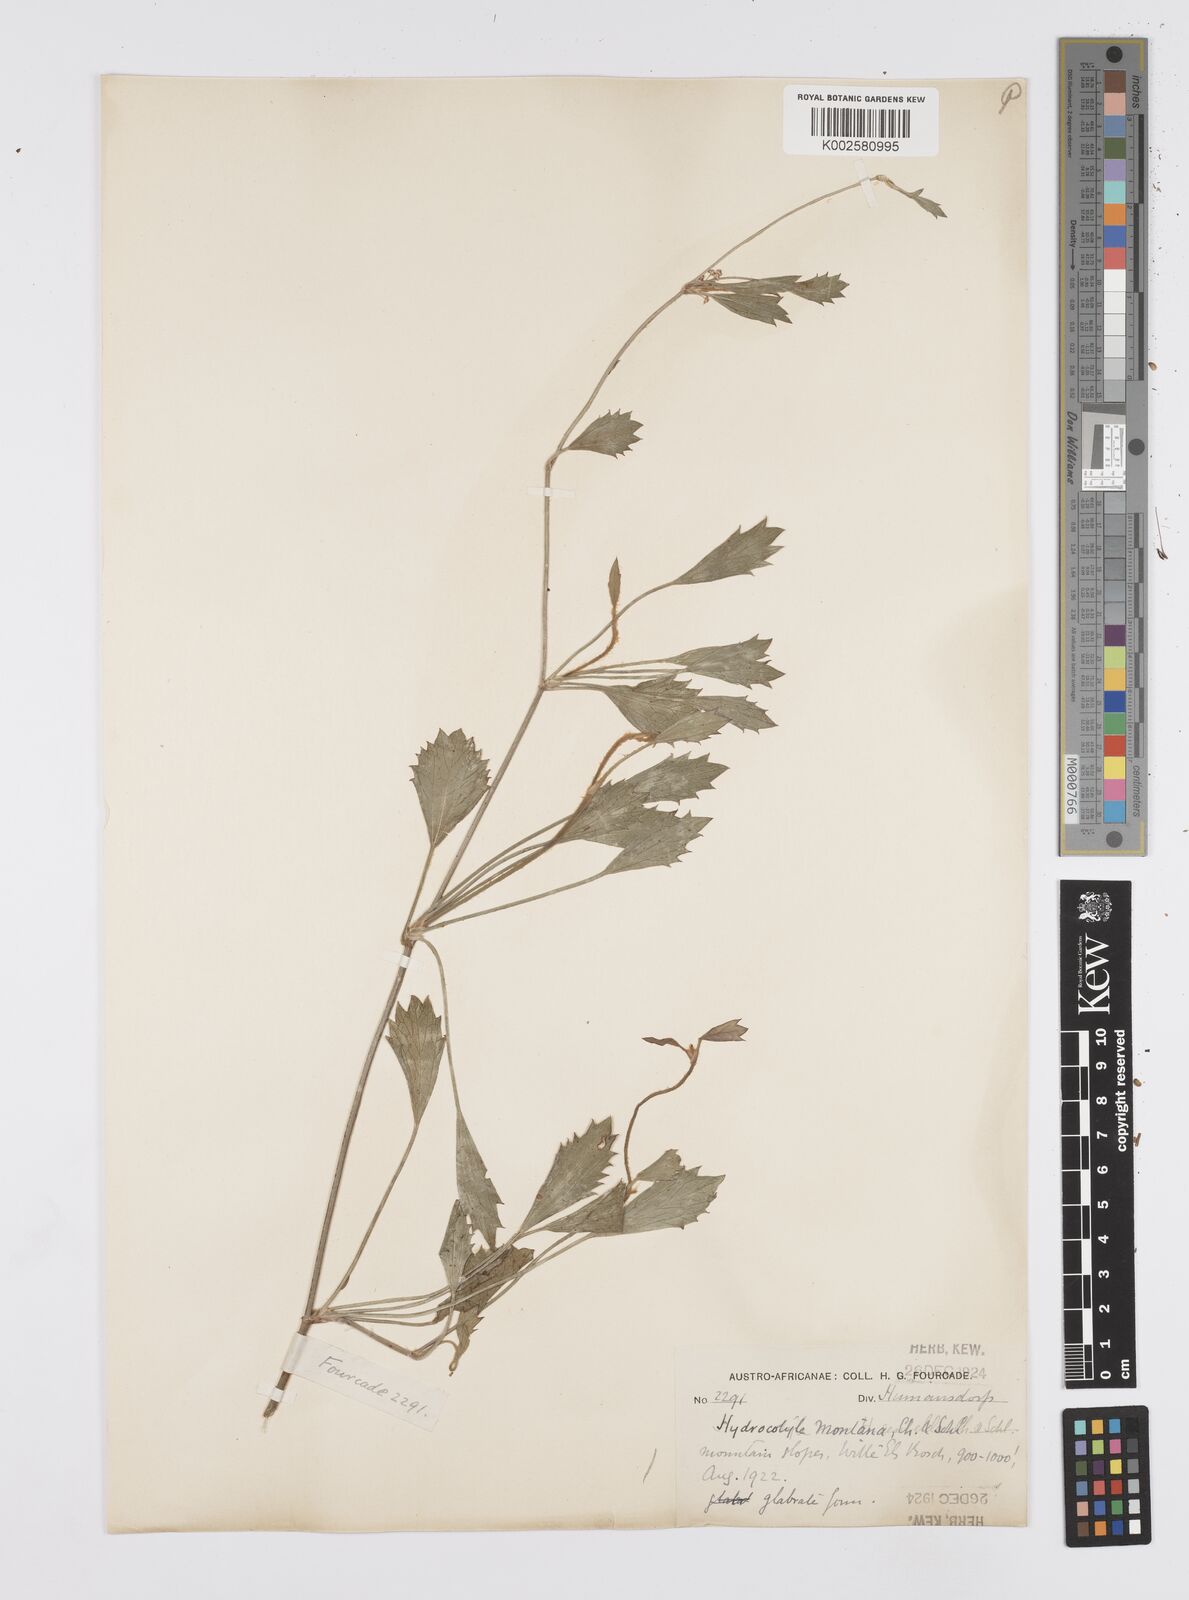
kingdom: Plantae
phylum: Tracheophyta
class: Magnoliopsida
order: Apiales
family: Apiaceae
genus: Centella
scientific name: Centella fourcadei
